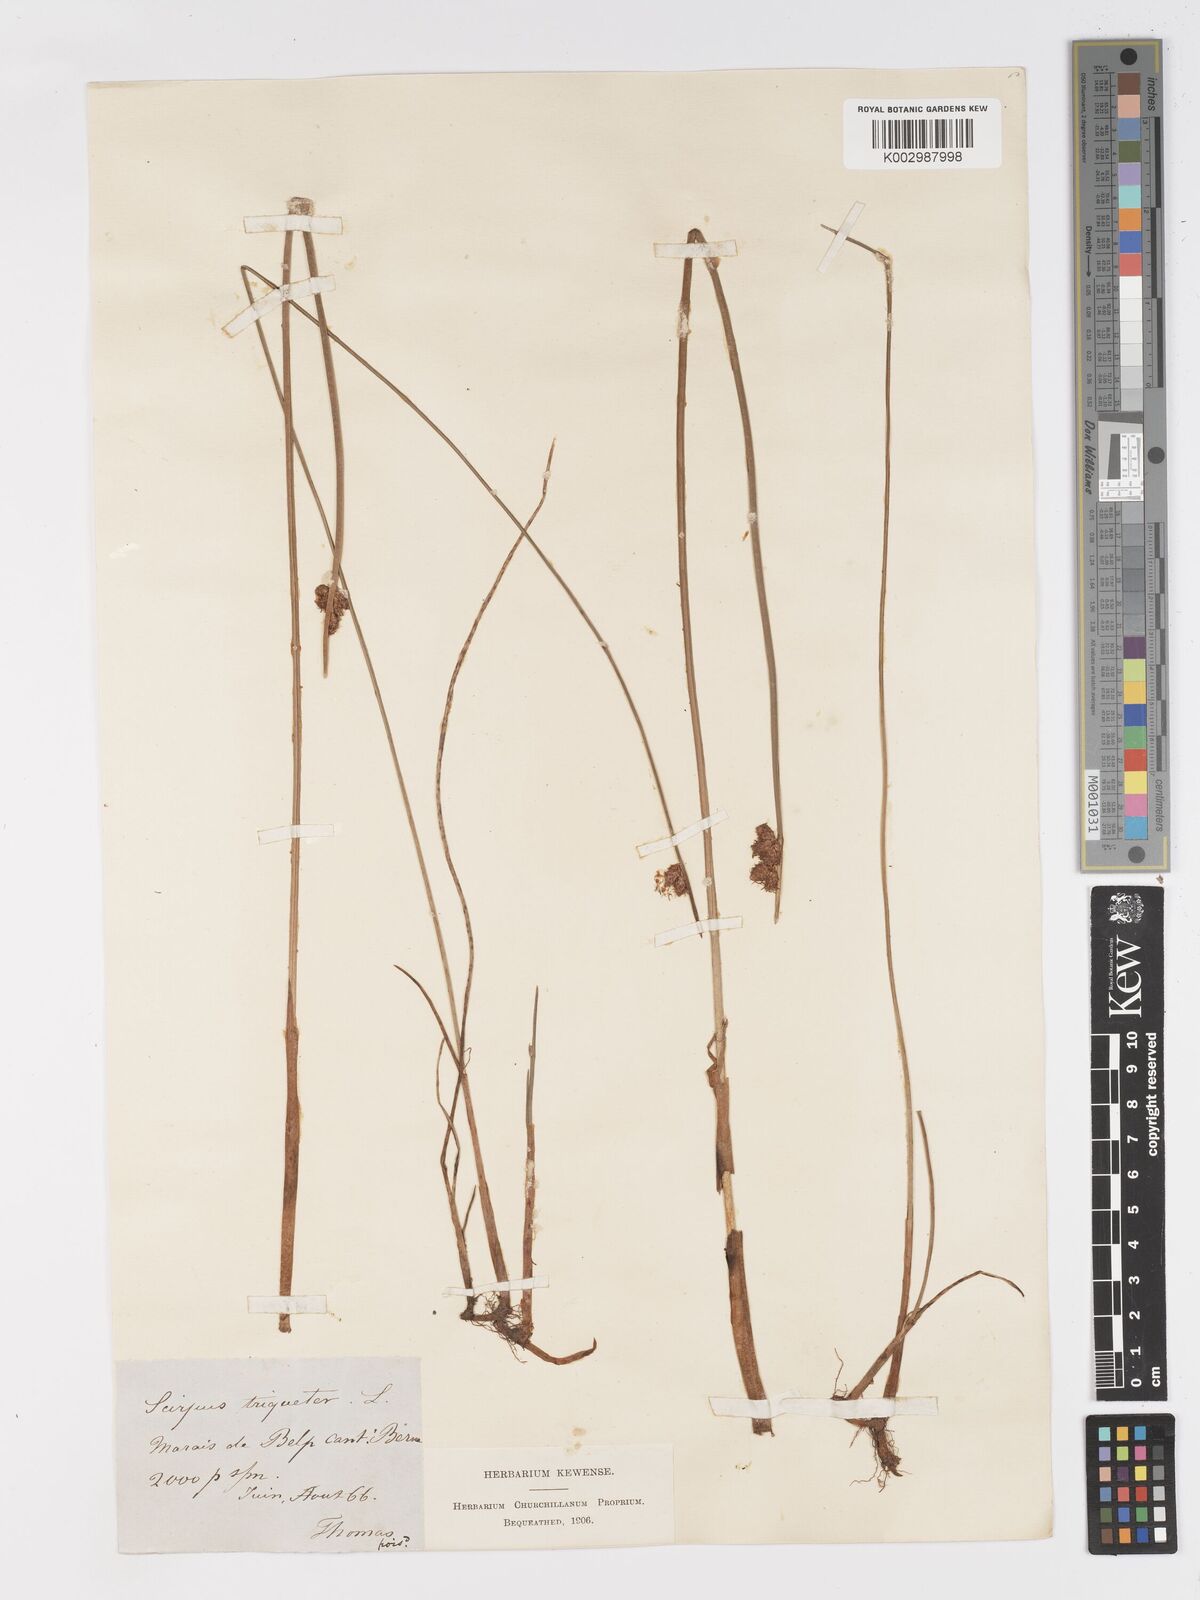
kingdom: Plantae
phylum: Tracheophyta
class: Liliopsida
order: Poales
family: Cyperaceae
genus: Schoenoplectus
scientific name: Schoenoplectus triqueter
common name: Triangular club-rush
